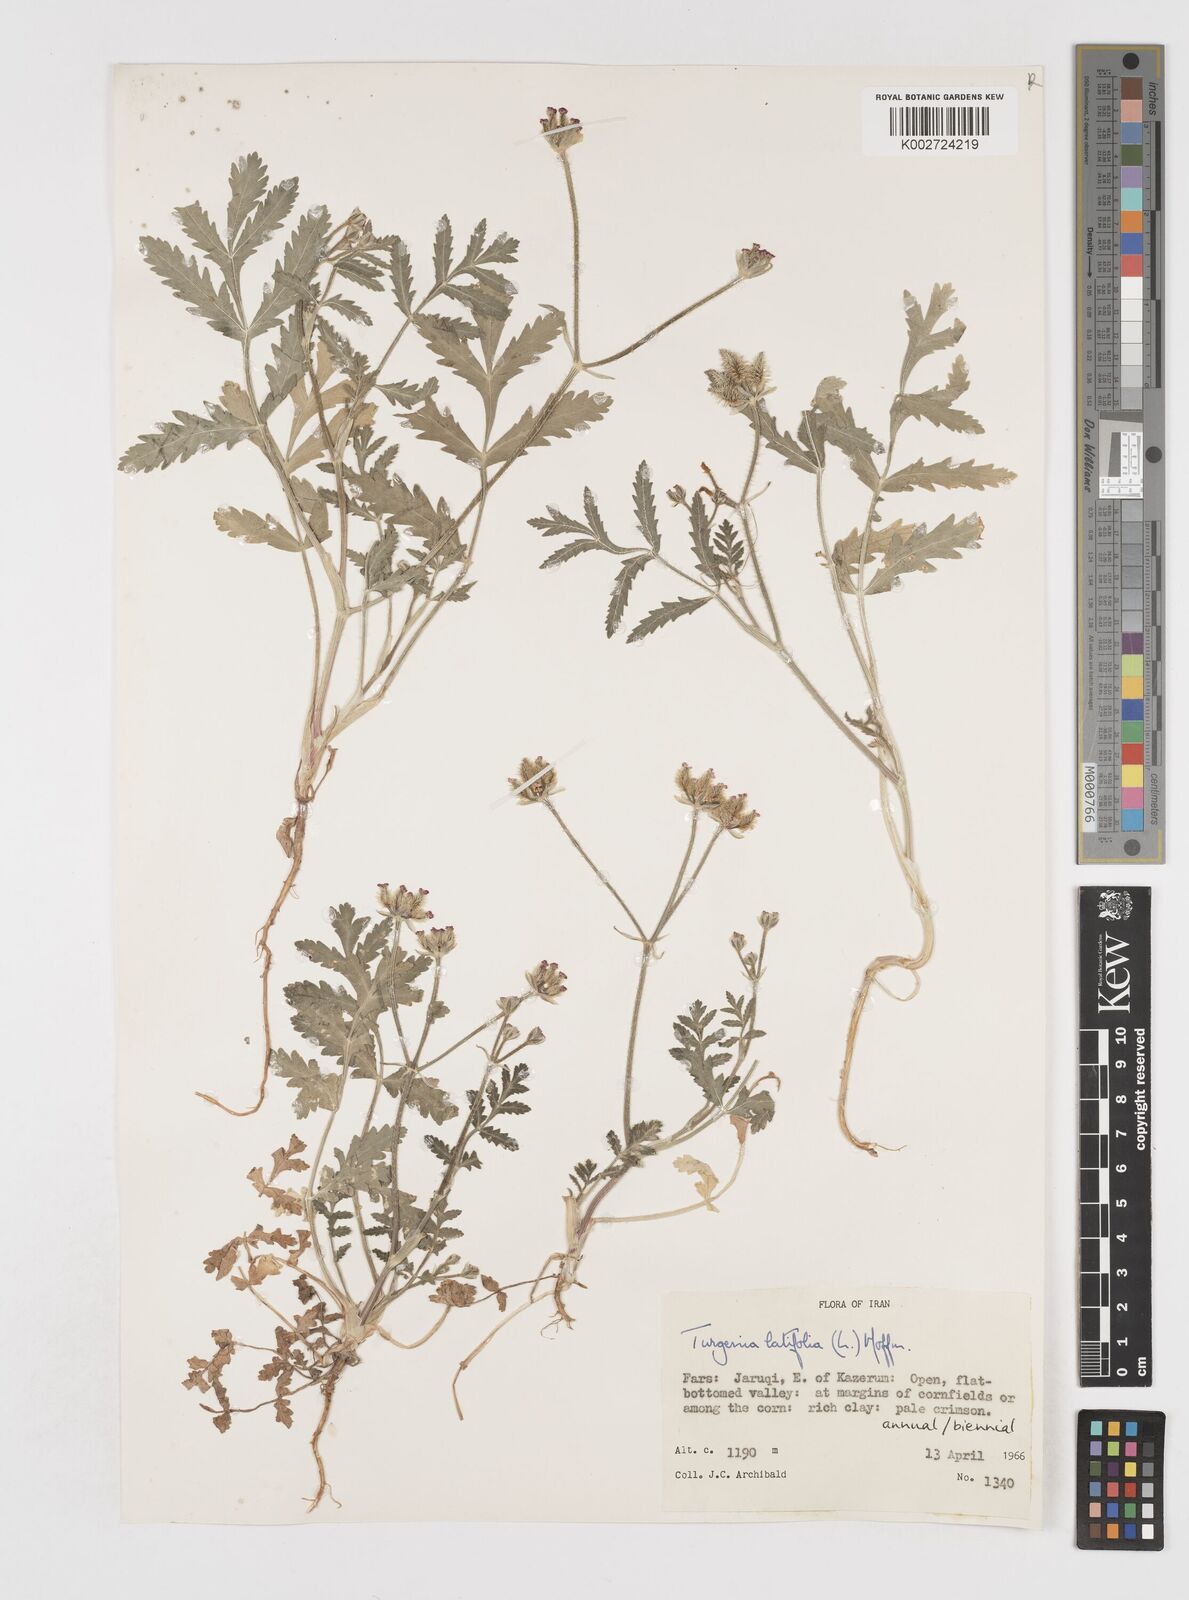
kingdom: Plantae
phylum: Tracheophyta
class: Magnoliopsida
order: Apiales
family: Apiaceae
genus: Turgenia
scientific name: Turgenia latifolia
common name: Greater bur-parsley
